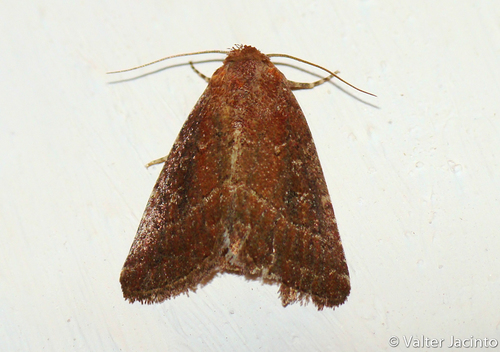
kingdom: Animalia
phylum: Arthropoda
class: Insecta
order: Lepidoptera
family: Noctuidae
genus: Condica
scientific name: Condica viscosa
